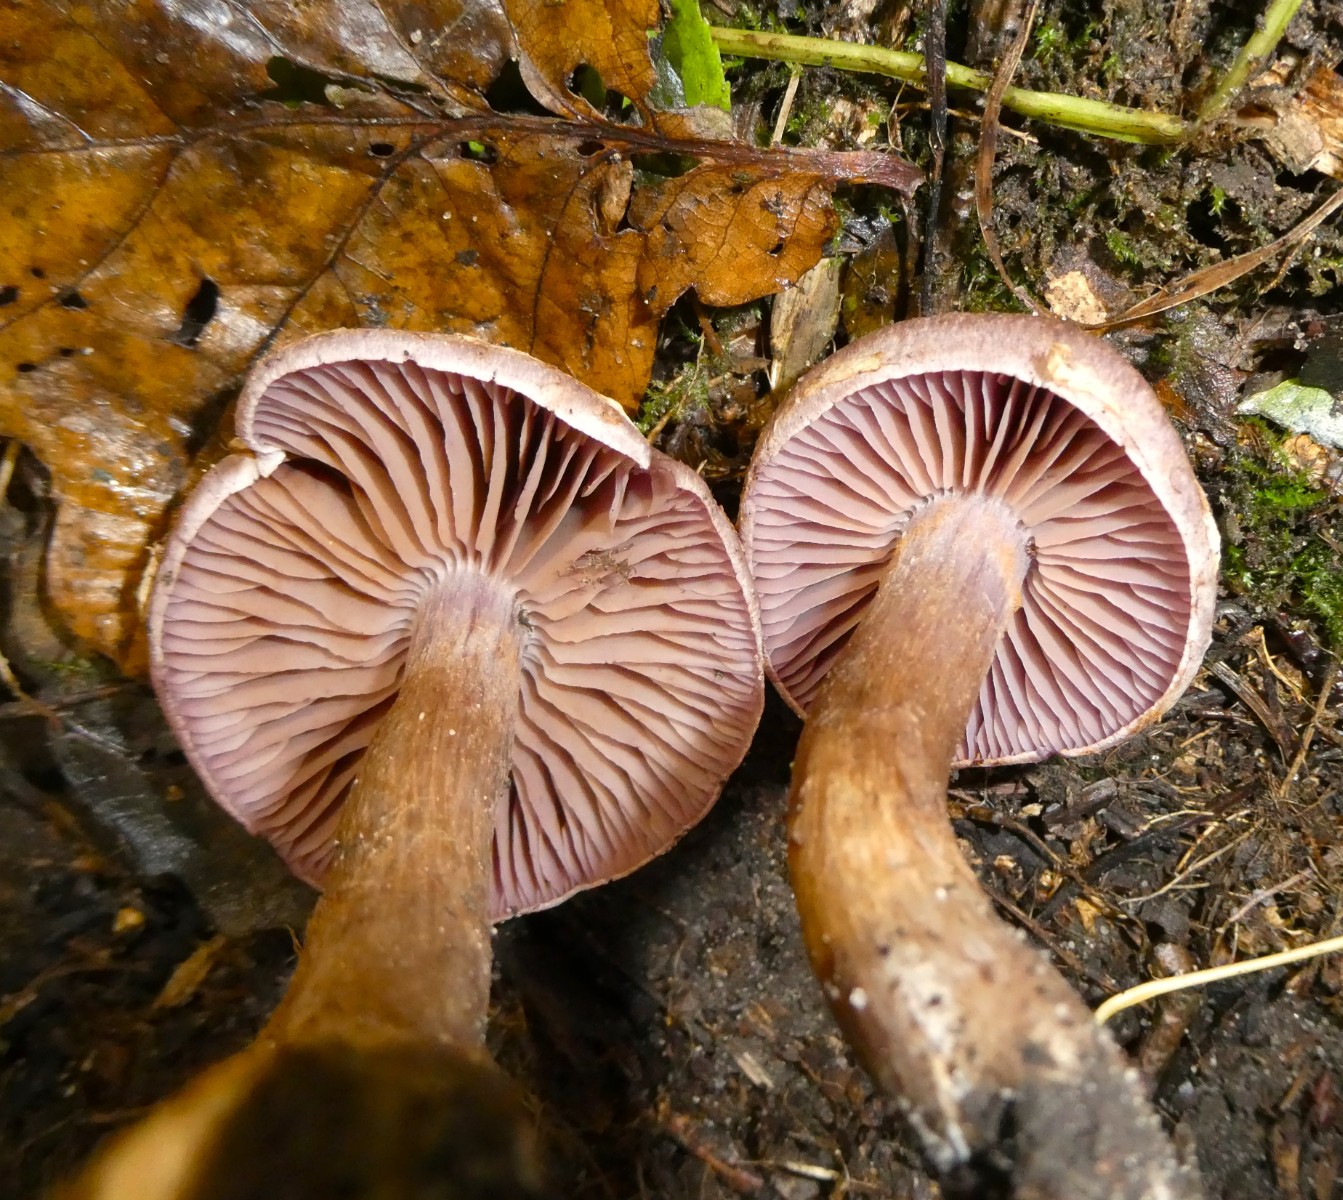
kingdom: Fungi
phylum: Basidiomycota
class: Agaricomycetes
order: Agaricales
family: Cortinariaceae
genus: Cortinarius
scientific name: Cortinarius lucorum
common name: aspe-slørhat
